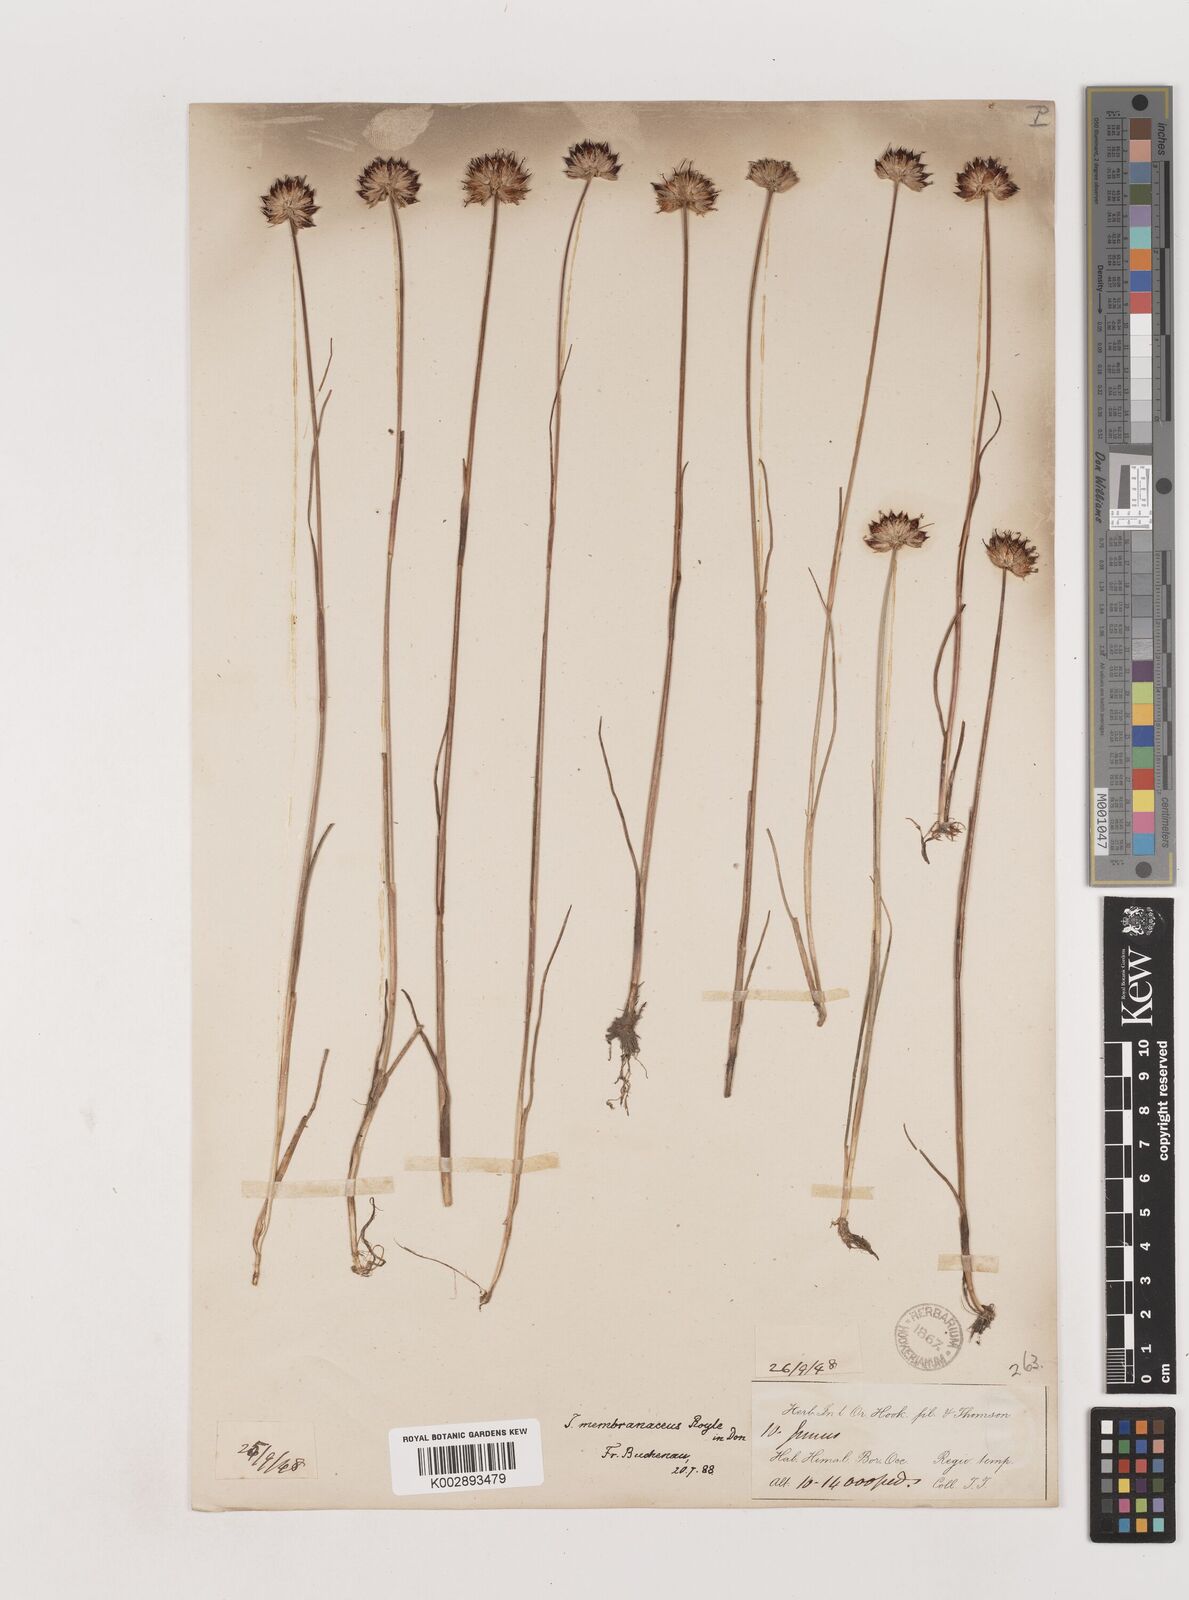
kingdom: Plantae
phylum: Tracheophyta
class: Liliopsida
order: Poales
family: Juncaceae
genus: Juncus
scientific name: Juncus membranaceus
